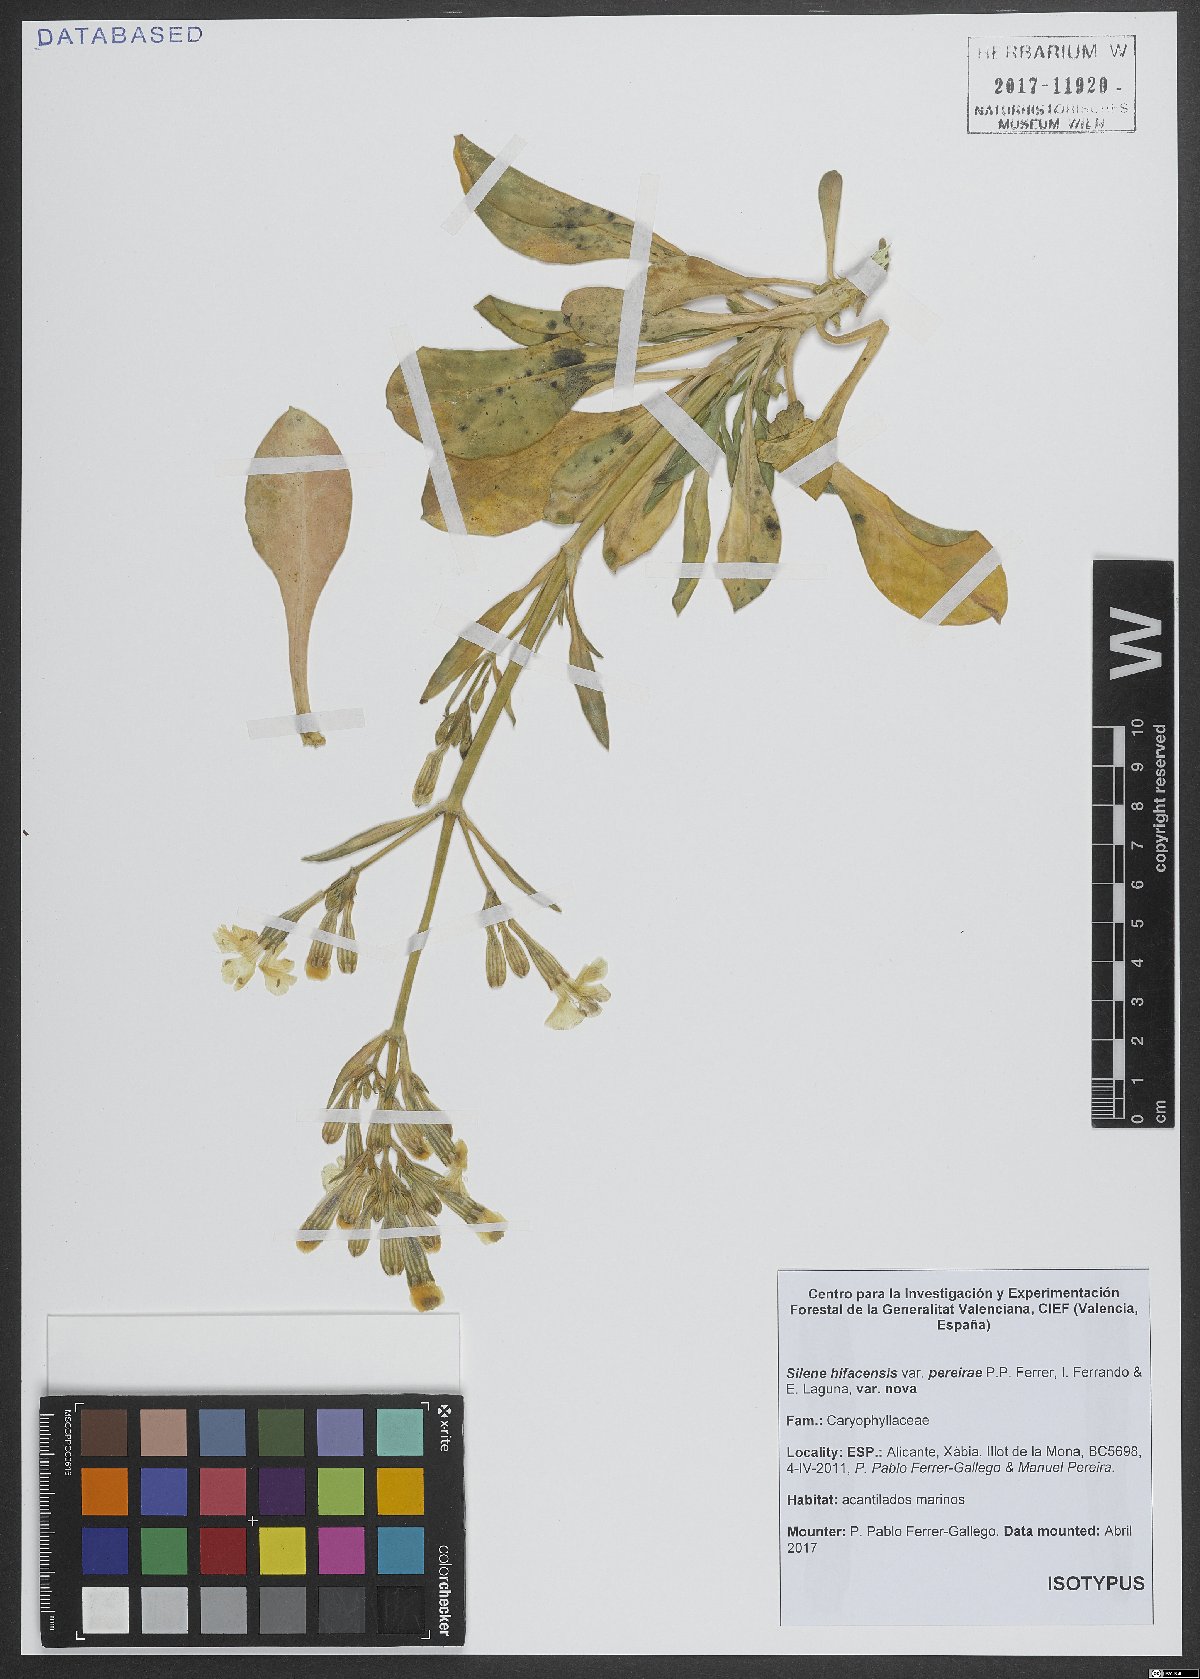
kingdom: Plantae
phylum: Tracheophyta
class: Magnoliopsida
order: Caryophyllales
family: Caryophyllaceae
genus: Silene
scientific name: Silene hifacensis
